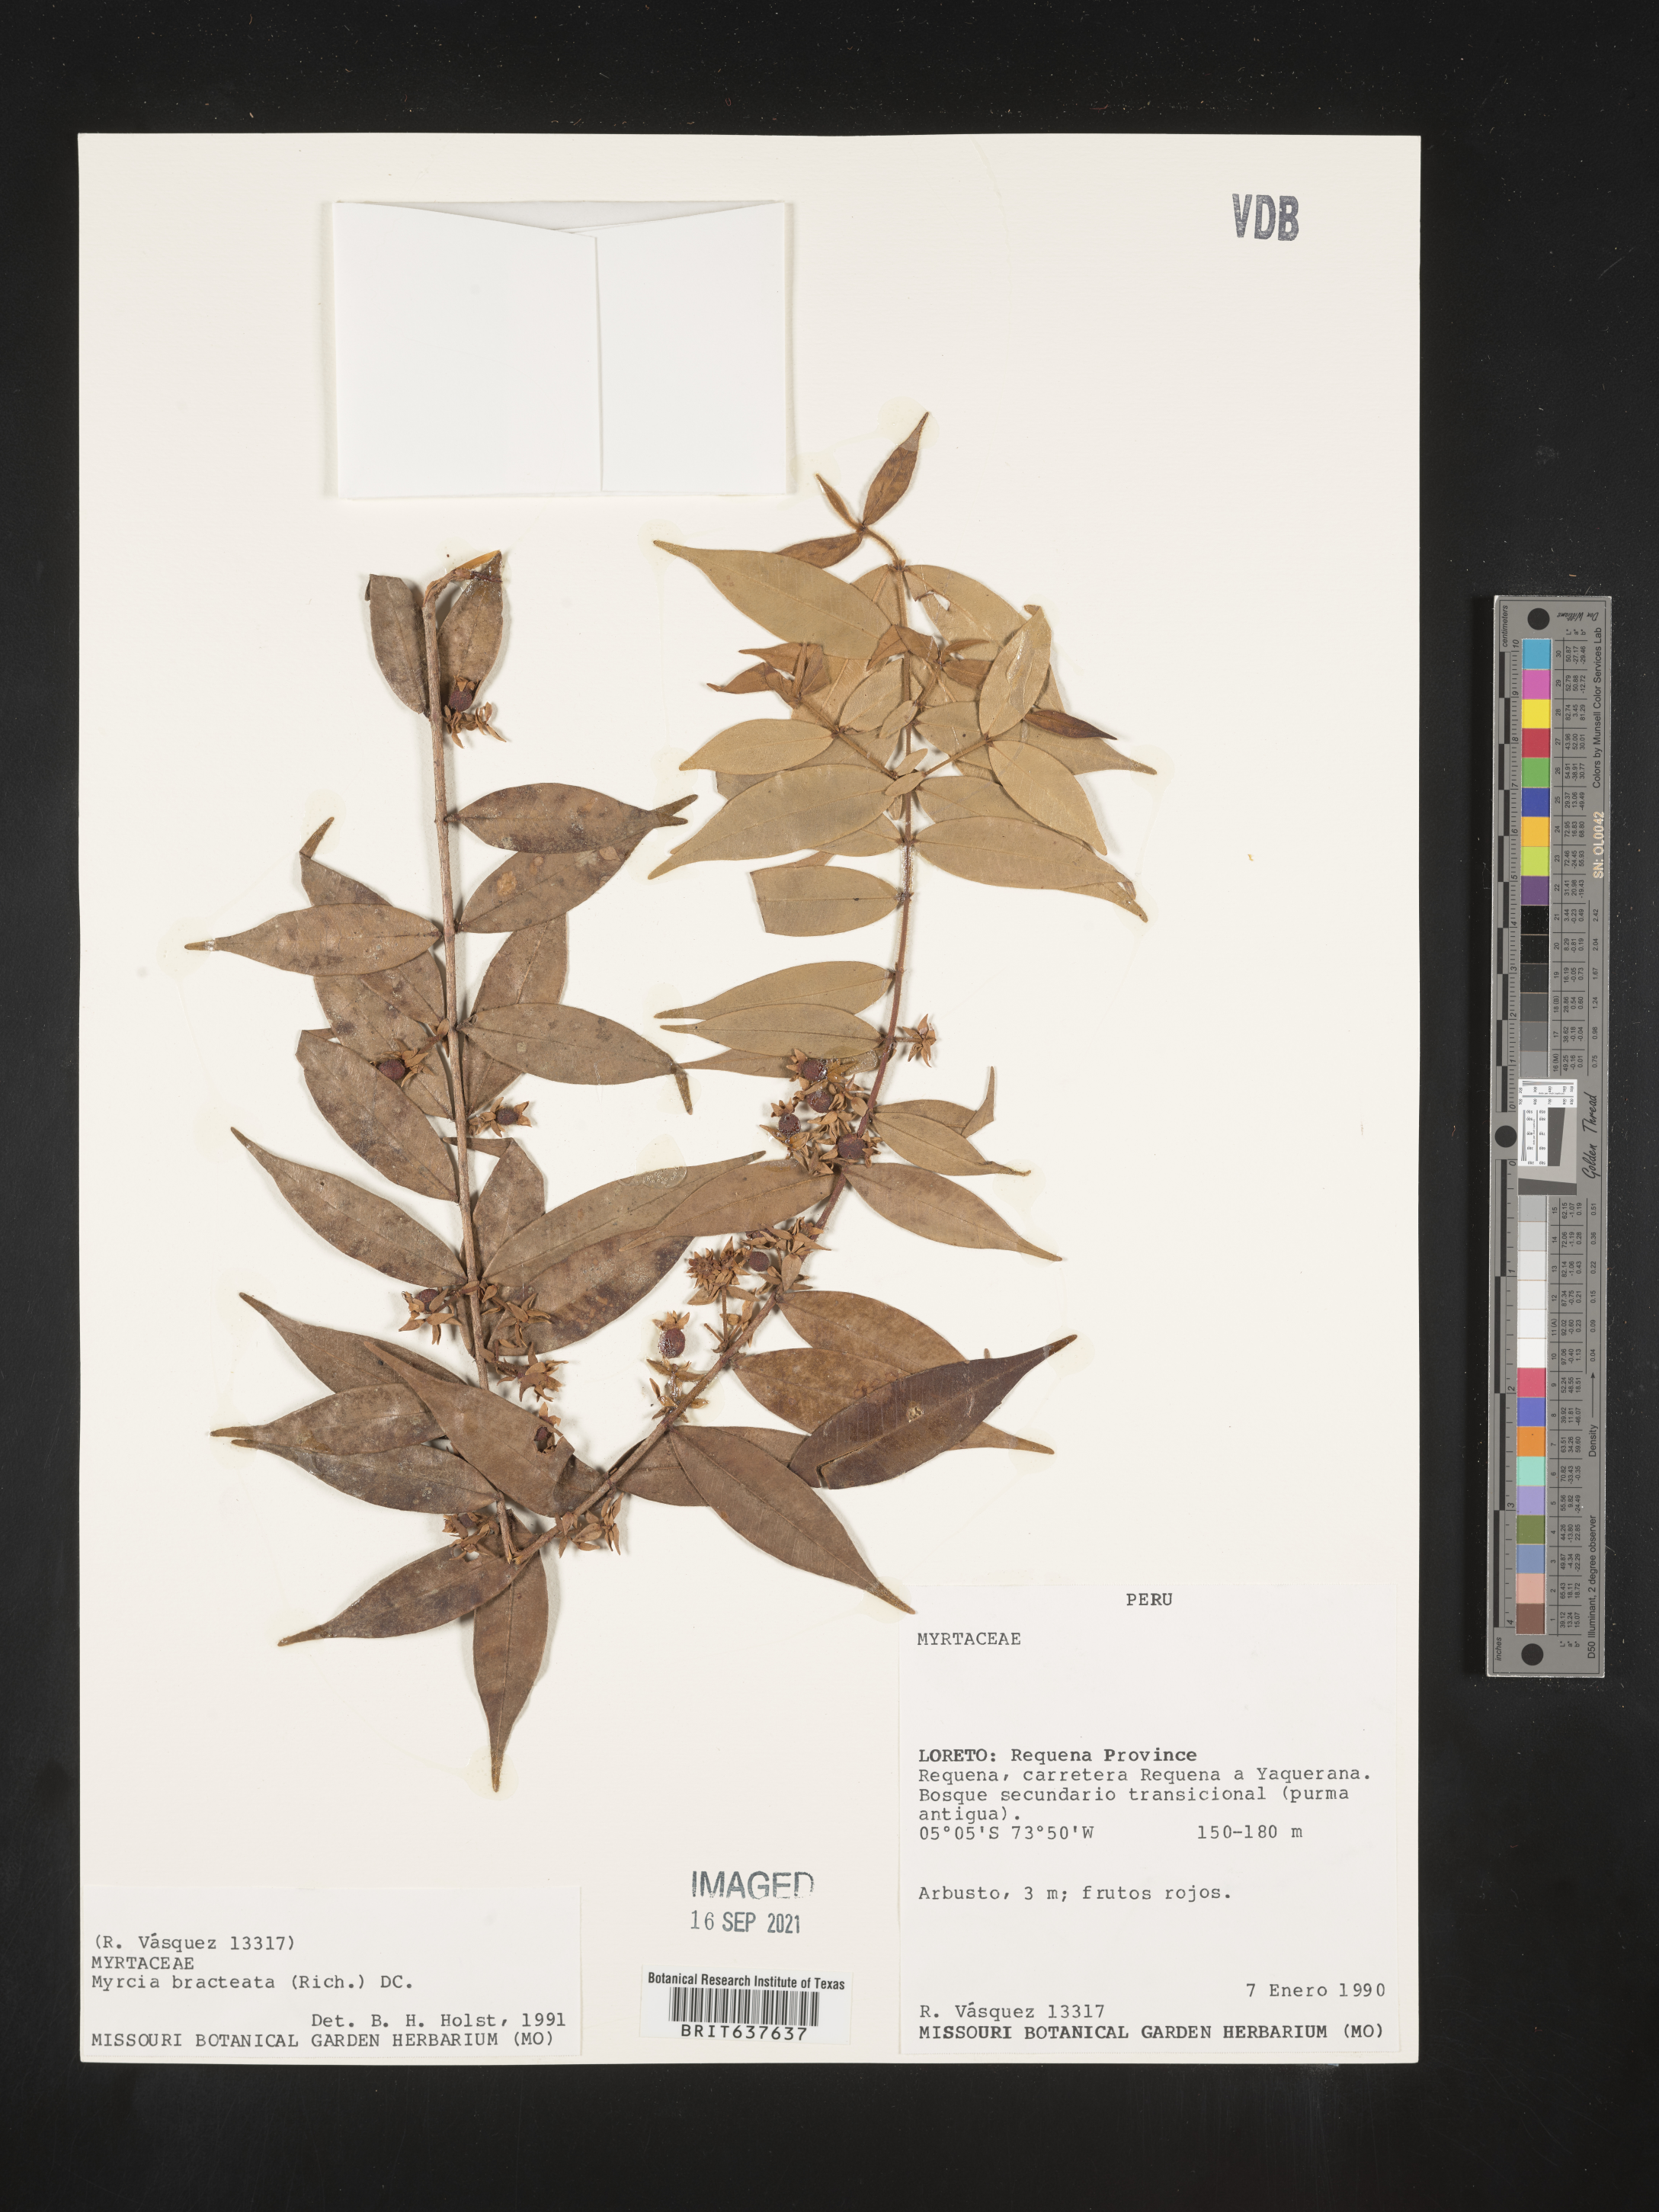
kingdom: Plantae
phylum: Tracheophyta
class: Magnoliopsida
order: Myrtales
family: Myrtaceae
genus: Myrcia
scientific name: Myrcia
